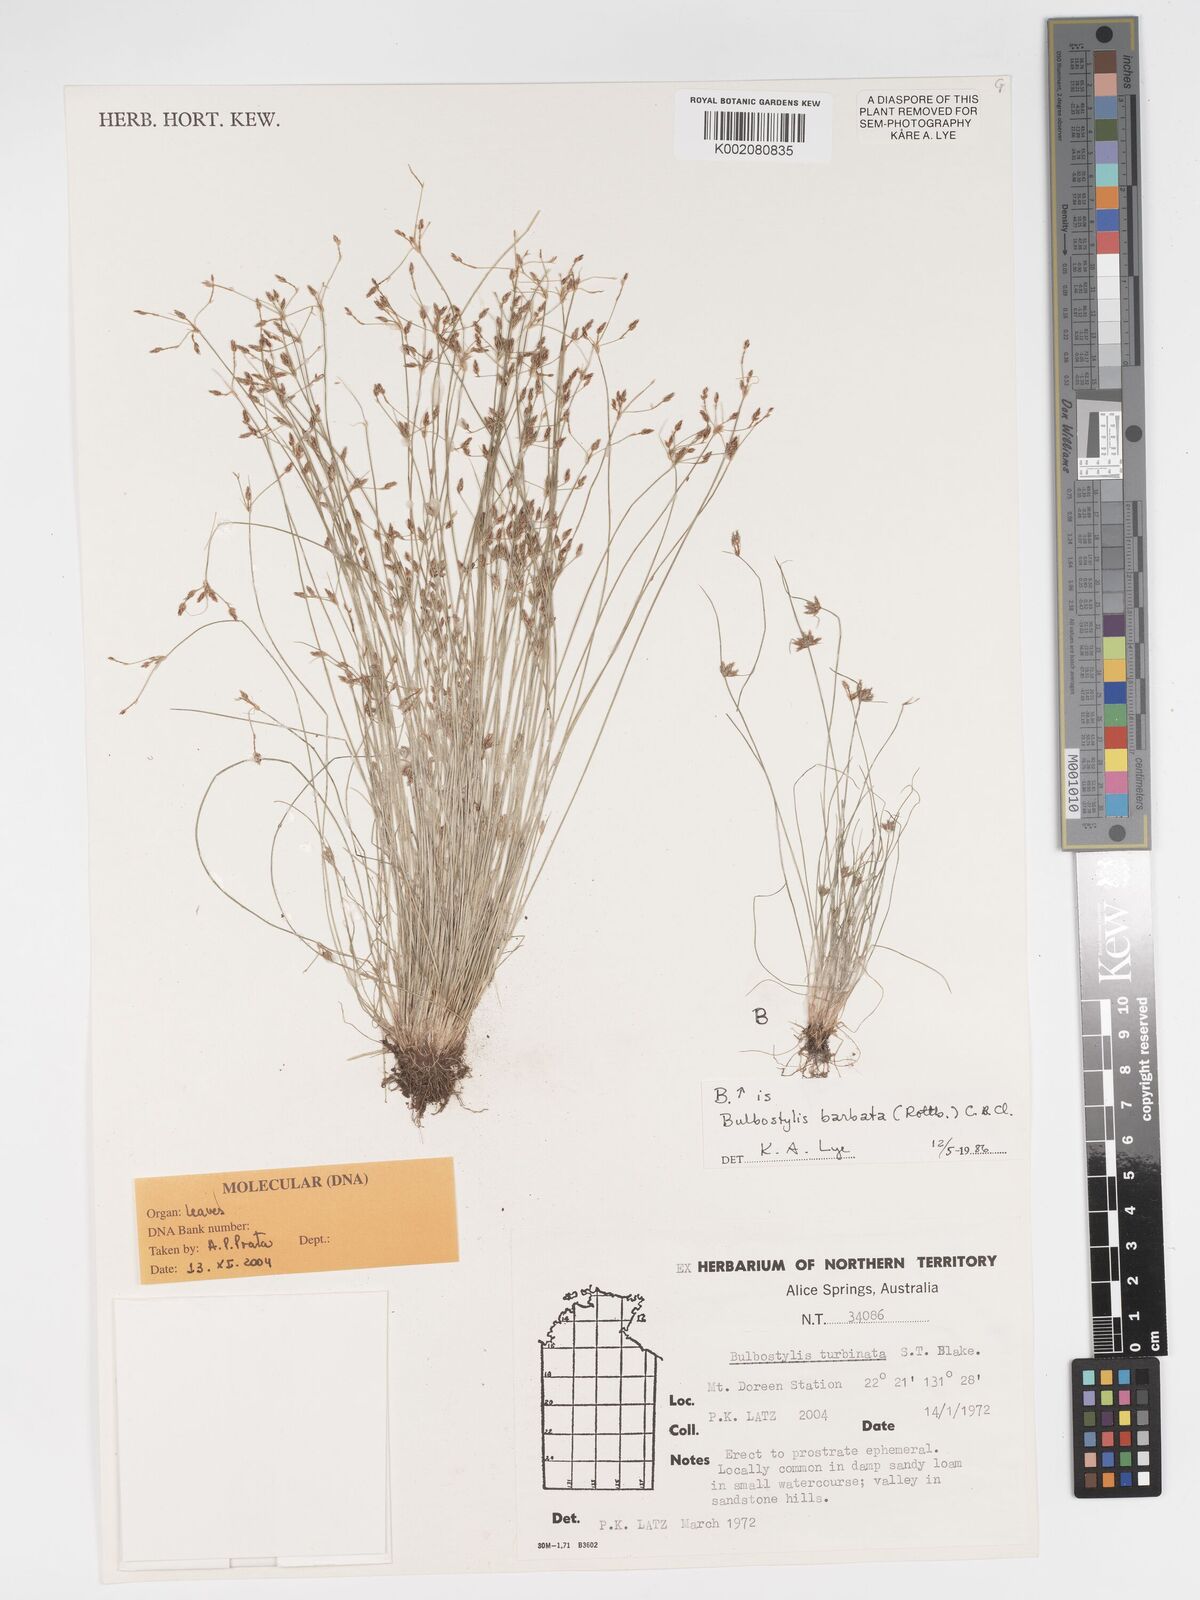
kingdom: Plantae
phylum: Tracheophyta
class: Liliopsida
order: Poales
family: Cyperaceae
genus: Bulbostylis
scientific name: Bulbostylis turbinata
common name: Hair sedge
